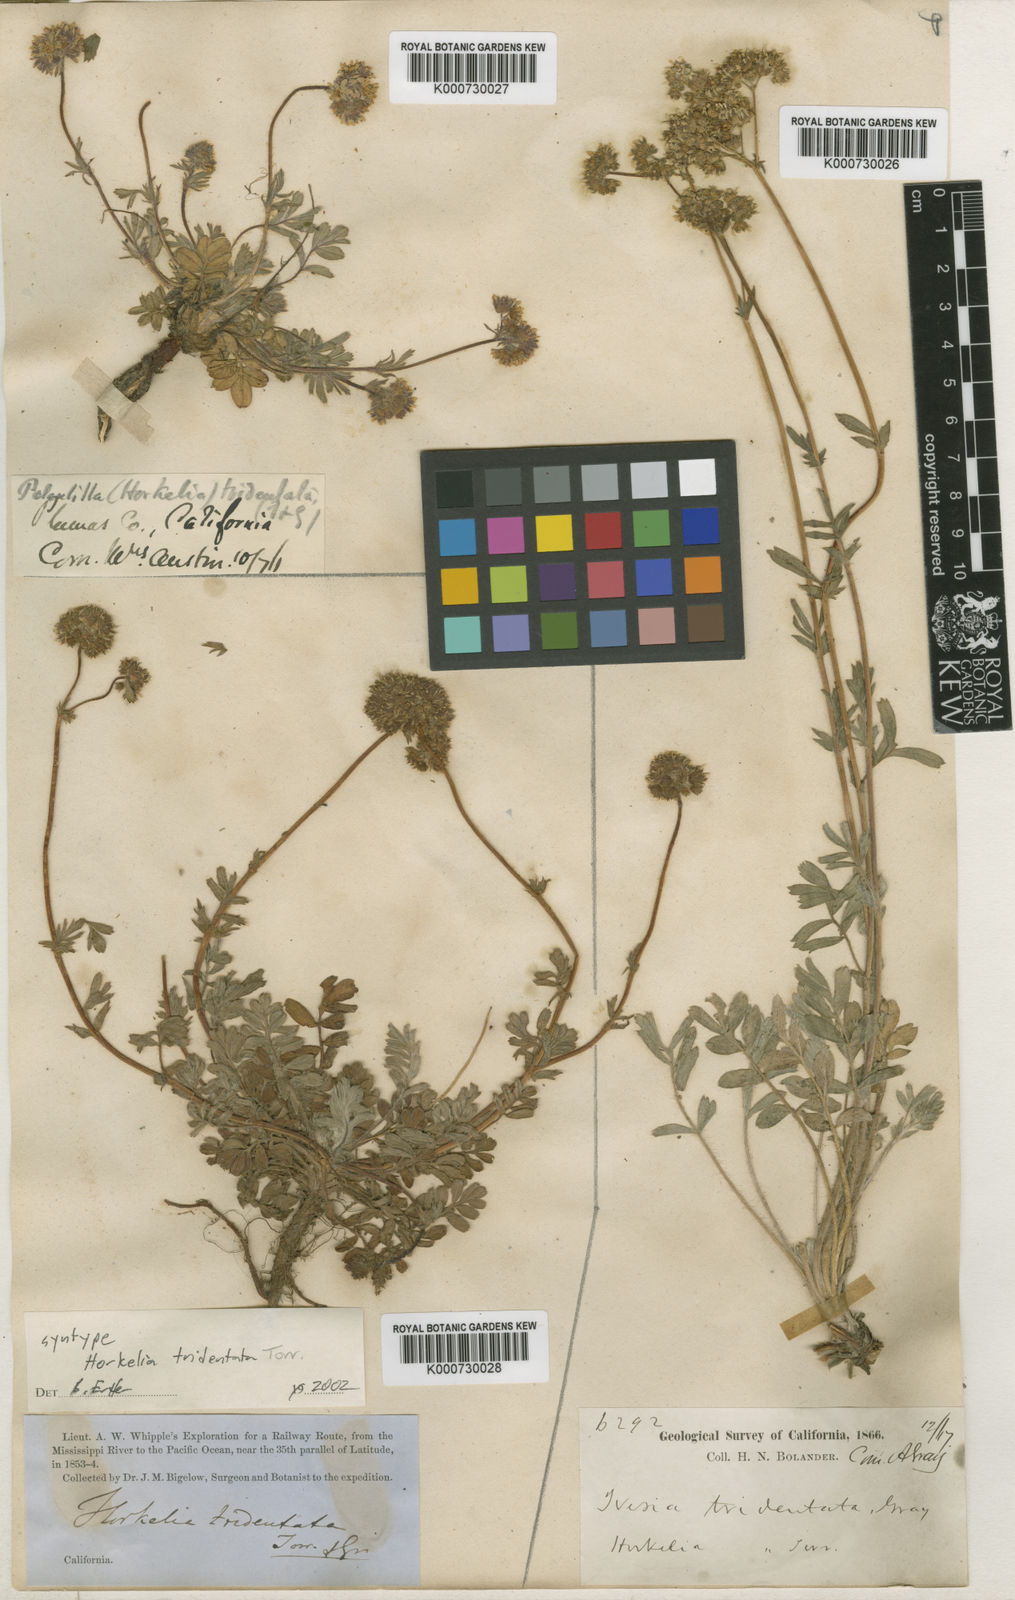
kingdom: Plantae
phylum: Tracheophyta
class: Magnoliopsida
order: Rosales
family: Rosaceae
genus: Potentilla
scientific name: Potentilla tilingii
